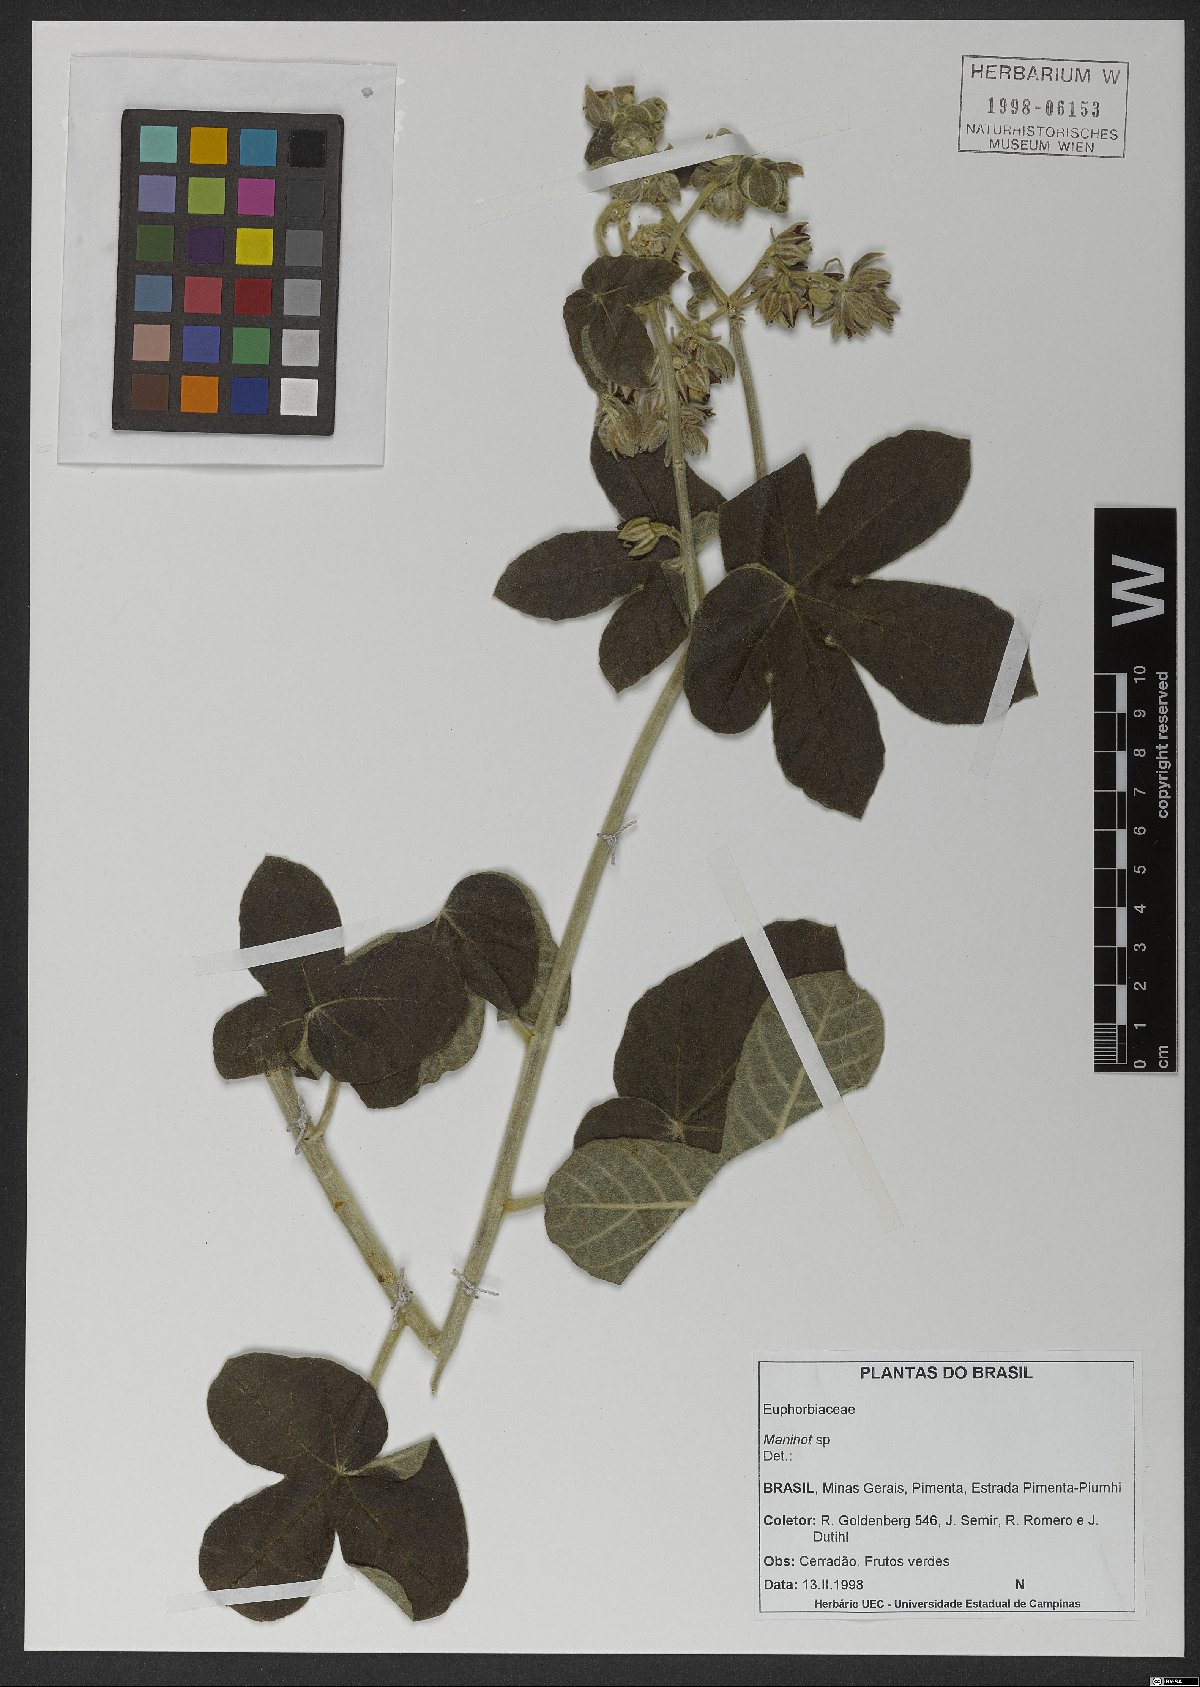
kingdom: Plantae
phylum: Tracheophyta
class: Magnoliopsida
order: Malpighiales
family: Euphorbiaceae
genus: Manihot
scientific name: Manihot
